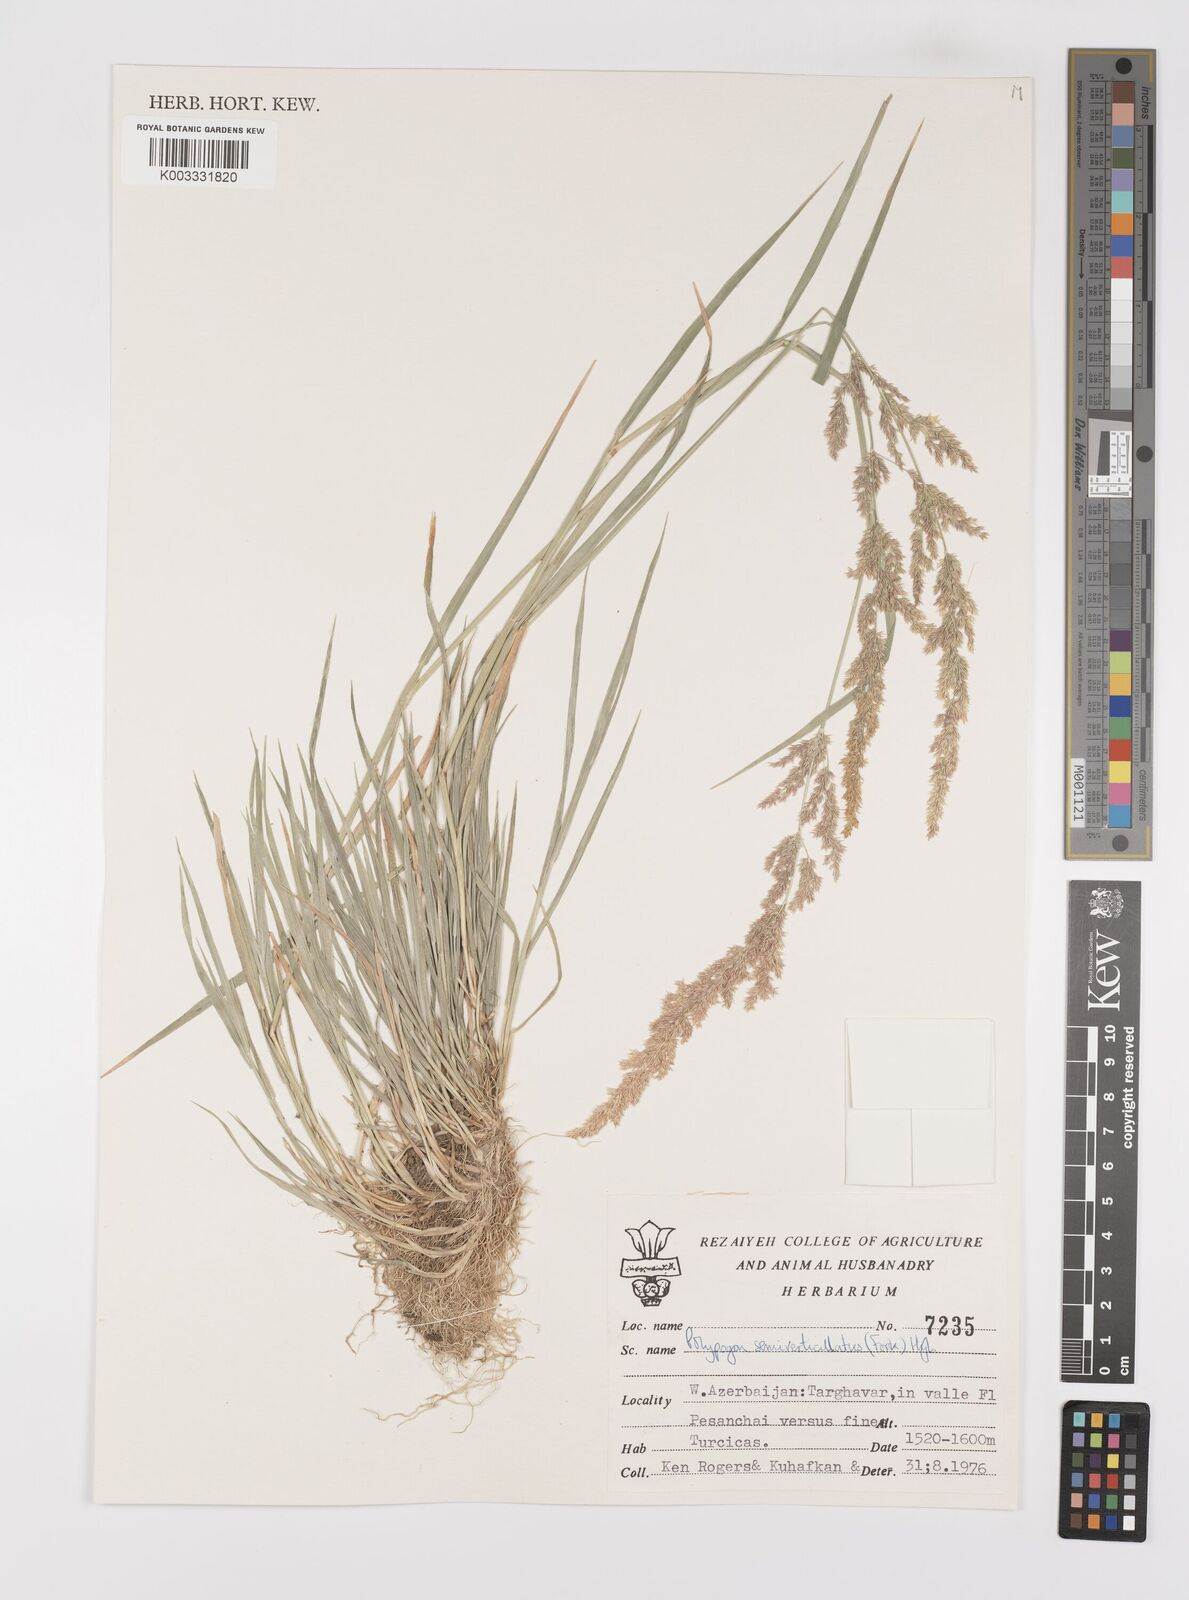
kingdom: Plantae
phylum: Tracheophyta
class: Liliopsida
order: Poales
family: Poaceae
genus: Polypogon
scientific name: Polypogon viridis
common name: Water bent
